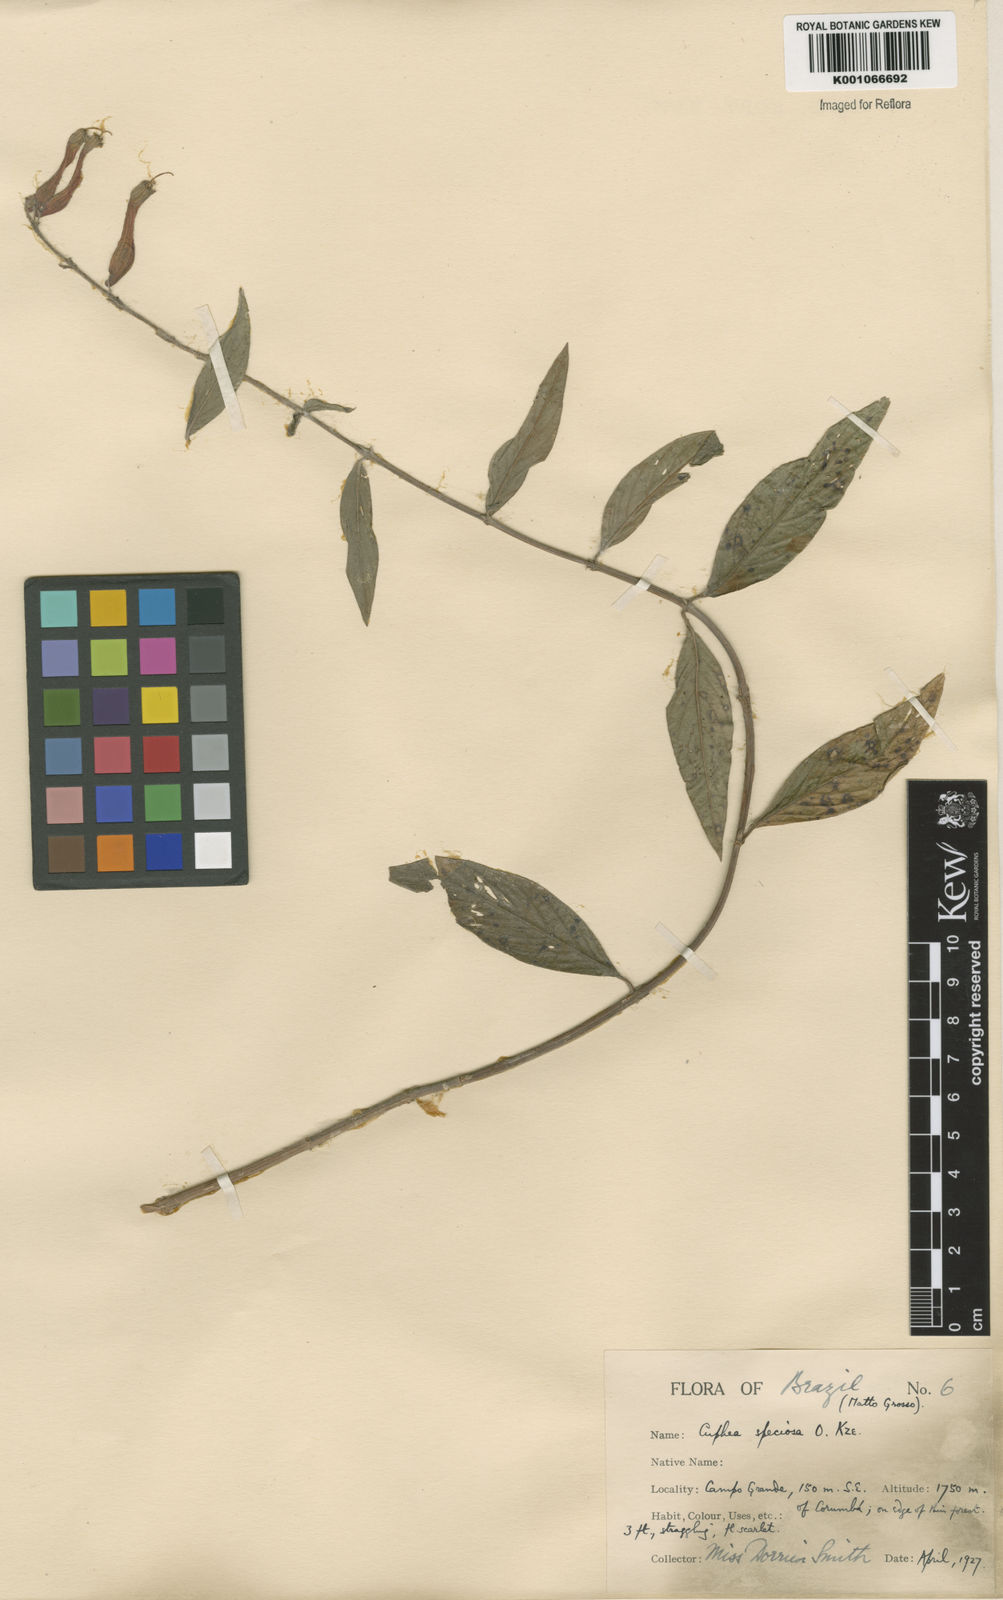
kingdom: Plantae
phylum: Tracheophyta
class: Magnoliopsida
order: Myrtales
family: Lythraceae
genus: Cuphea
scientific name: Cuphea melvilla
